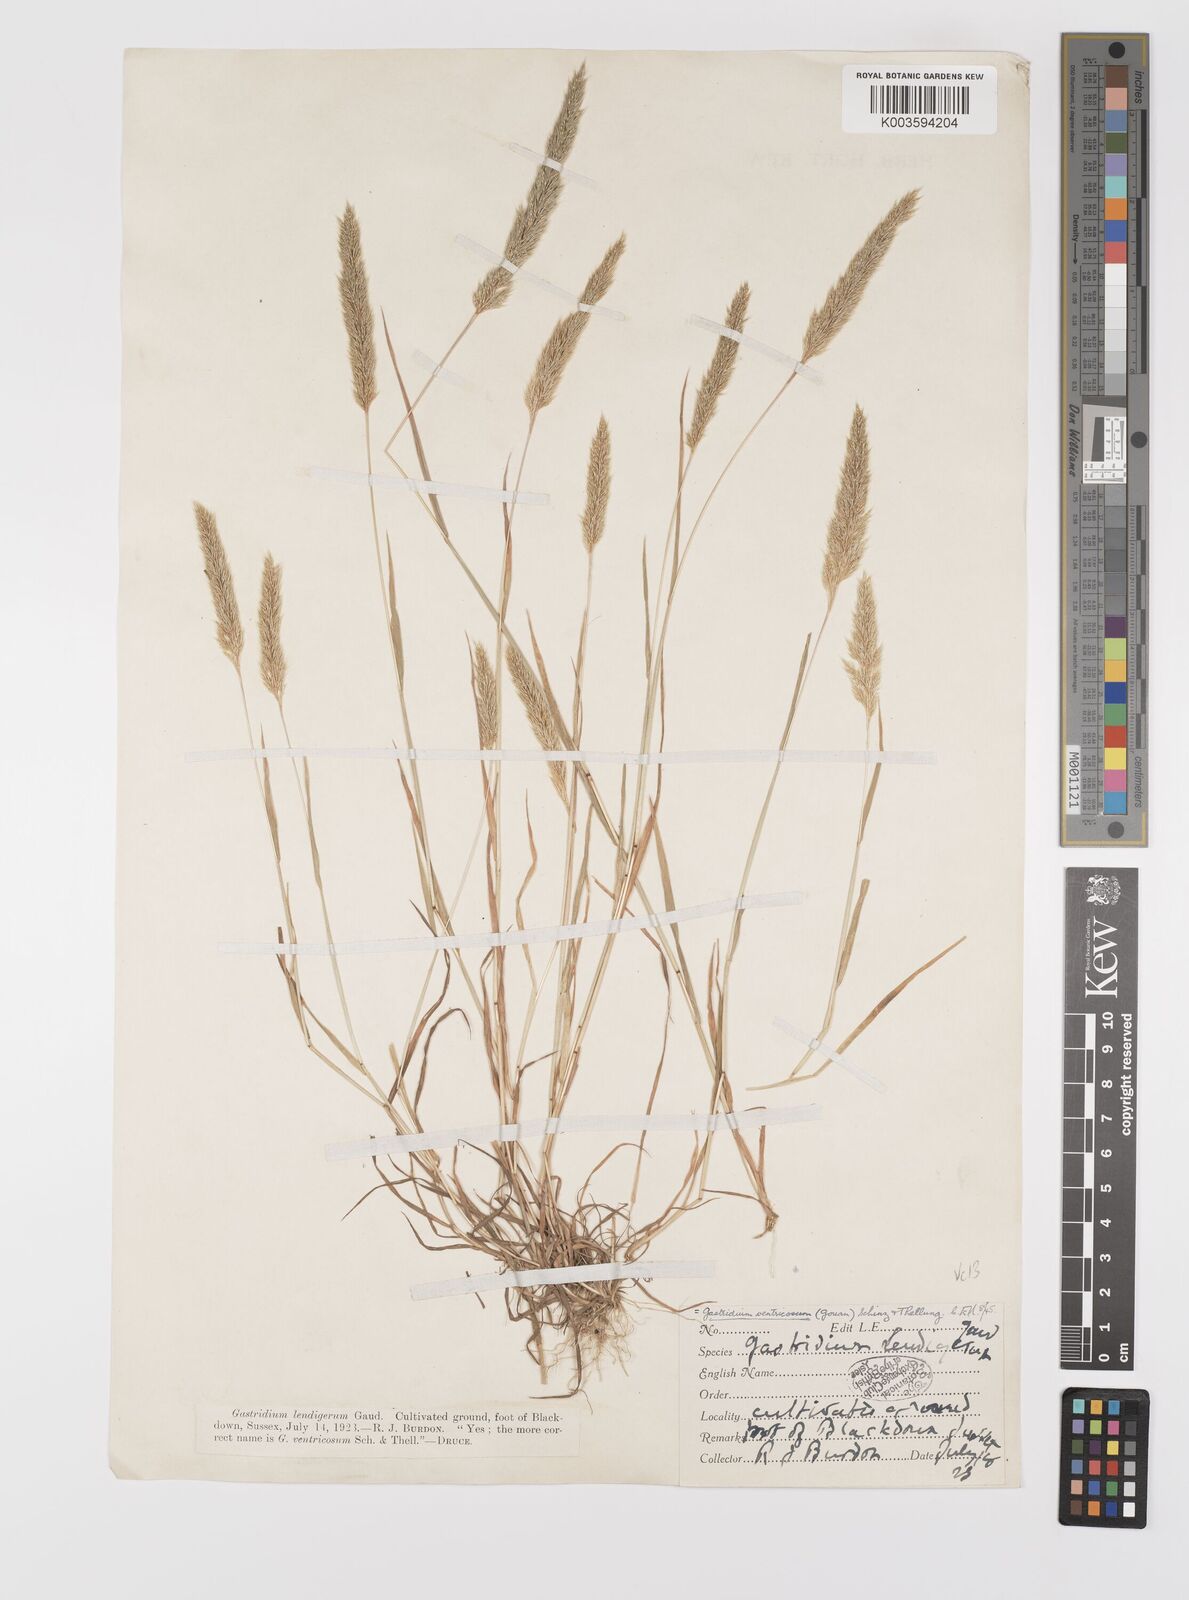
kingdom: Plantae
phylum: Tracheophyta
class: Liliopsida
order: Poales
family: Poaceae
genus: Gastridium
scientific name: Gastridium ventricosum
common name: Nit-grass
